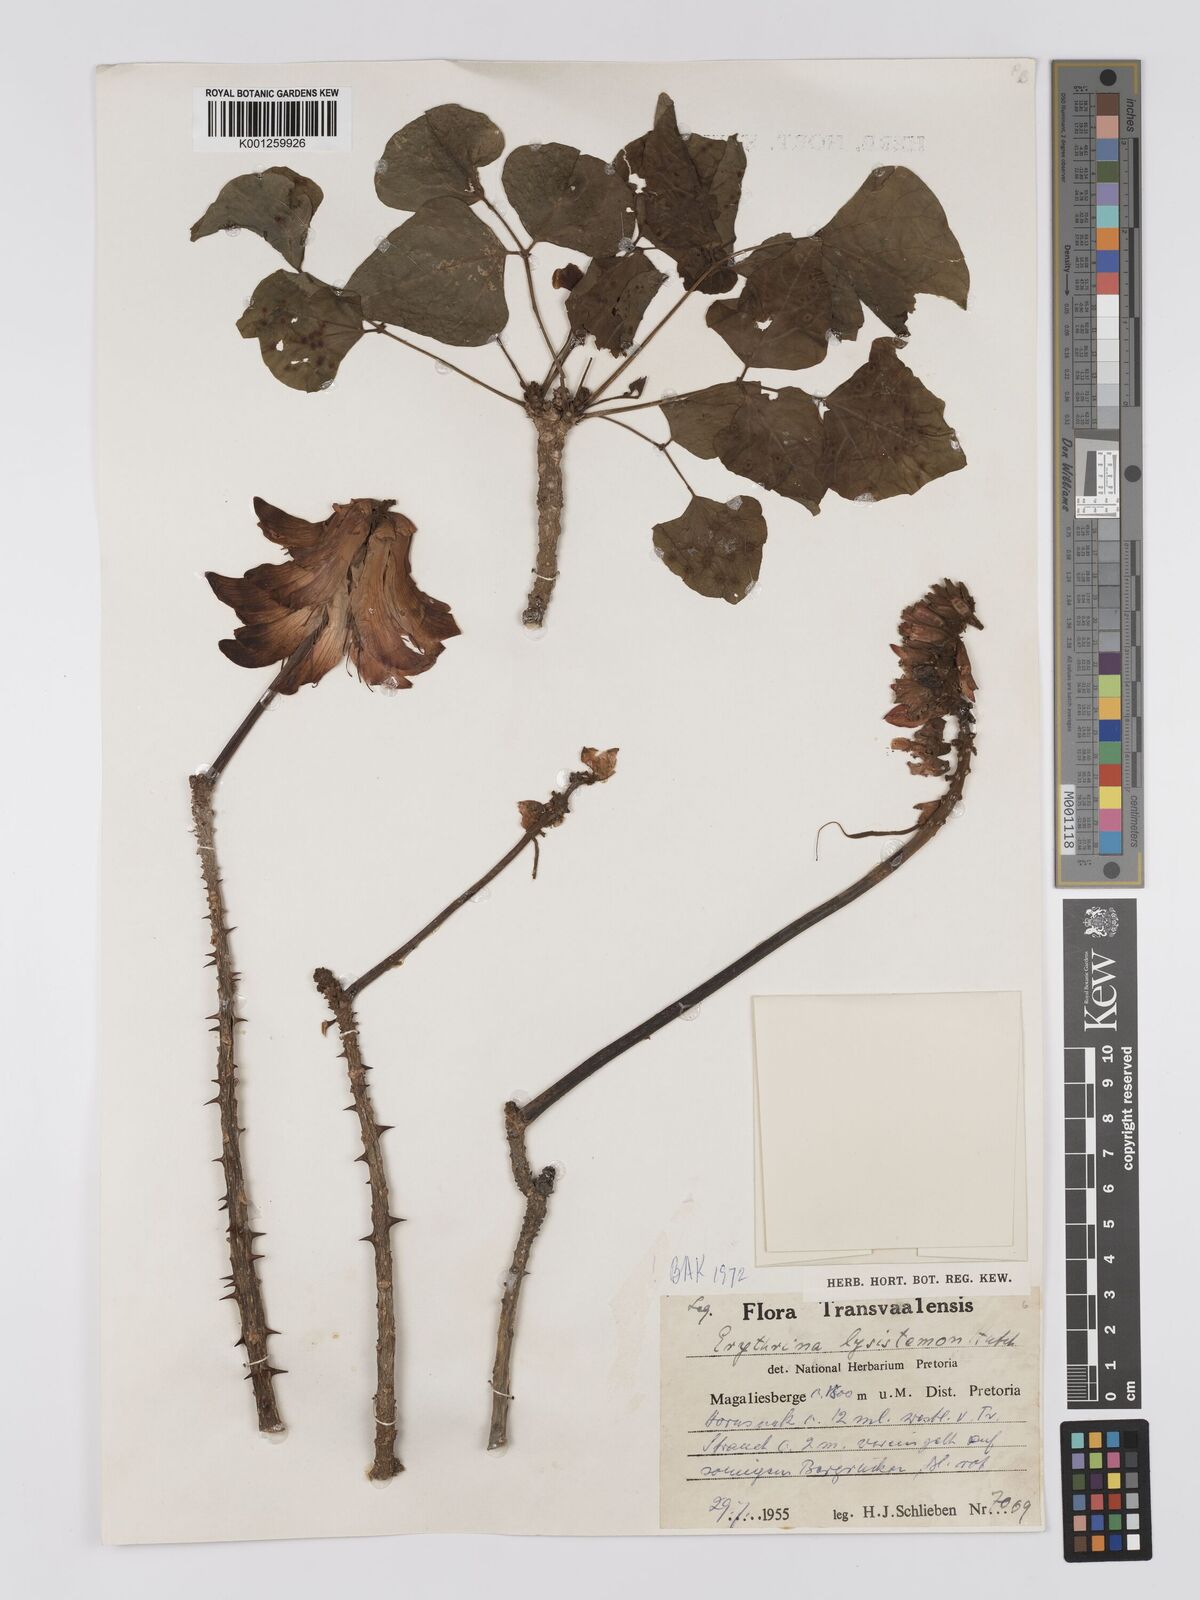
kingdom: Plantae
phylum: Tracheophyta
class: Magnoliopsida
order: Fabales
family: Fabaceae
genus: Erythrina
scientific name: Erythrina lysistemon
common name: Common coral tree
